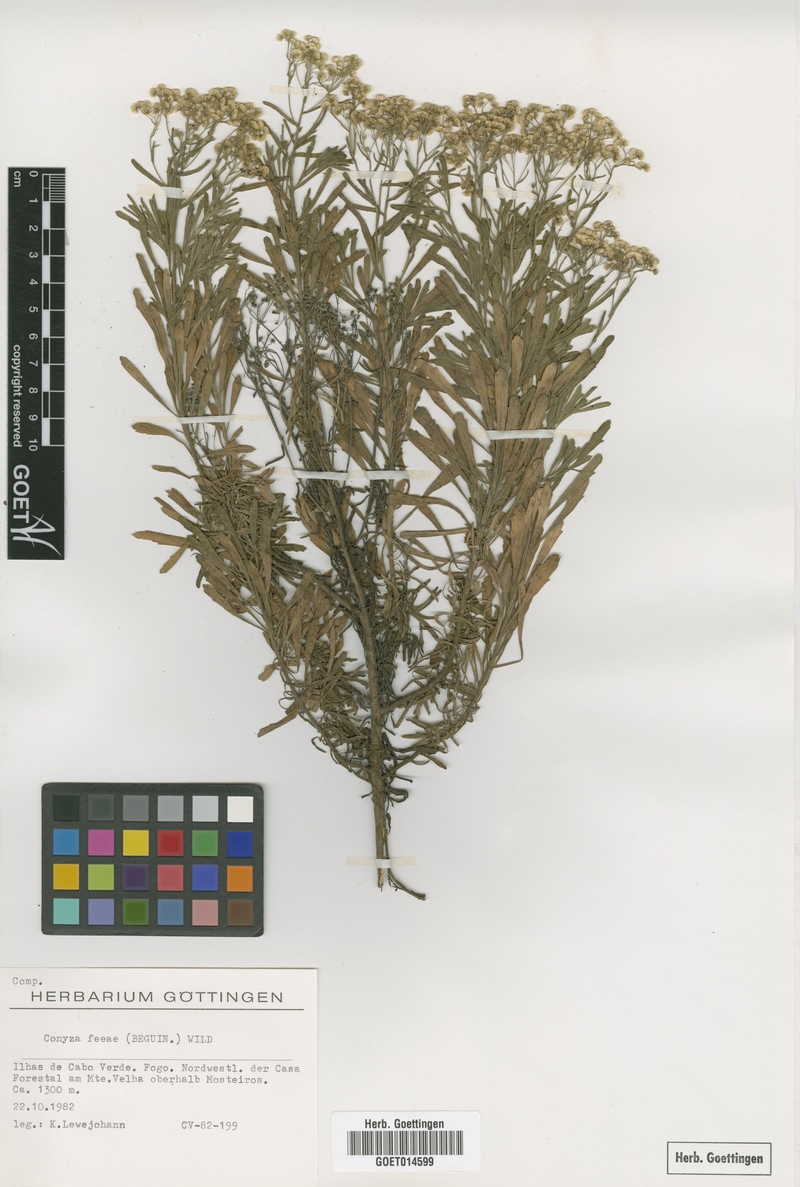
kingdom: Plantae
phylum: Tracheophyta
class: Magnoliopsida
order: Asterales
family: Asteraceae
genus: Nidorella
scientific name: Nidorella nobrei
